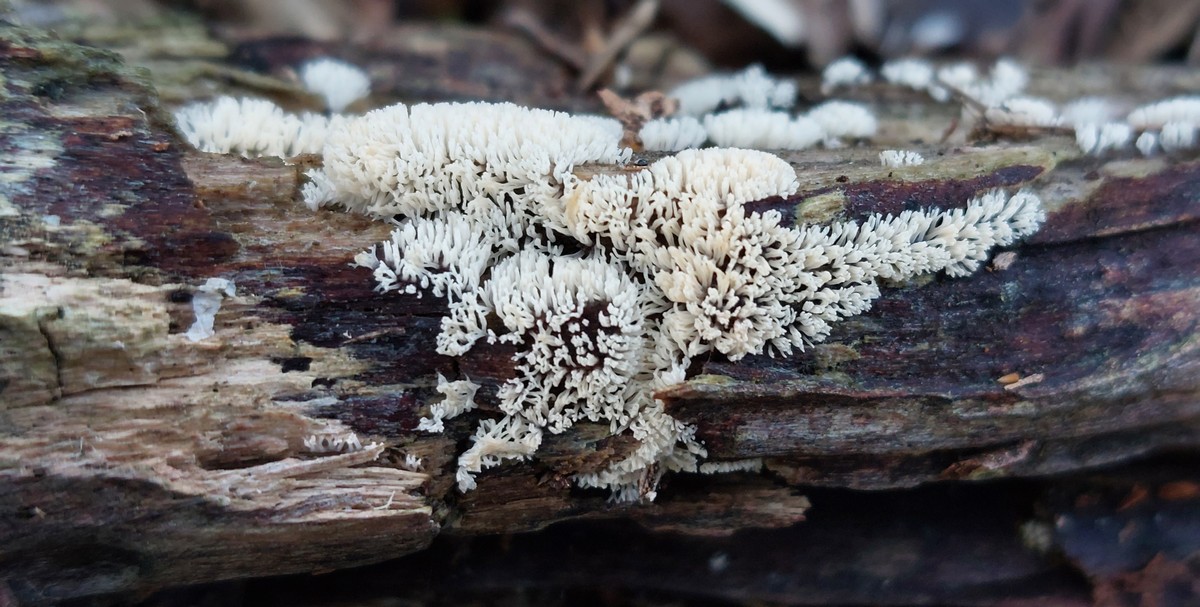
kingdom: Protozoa
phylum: Mycetozoa
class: Protosteliomycetes
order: Ceratiomyxales
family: Ceratiomyxaceae
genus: Ceratiomyxa
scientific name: Ceratiomyxa fruticulosa
